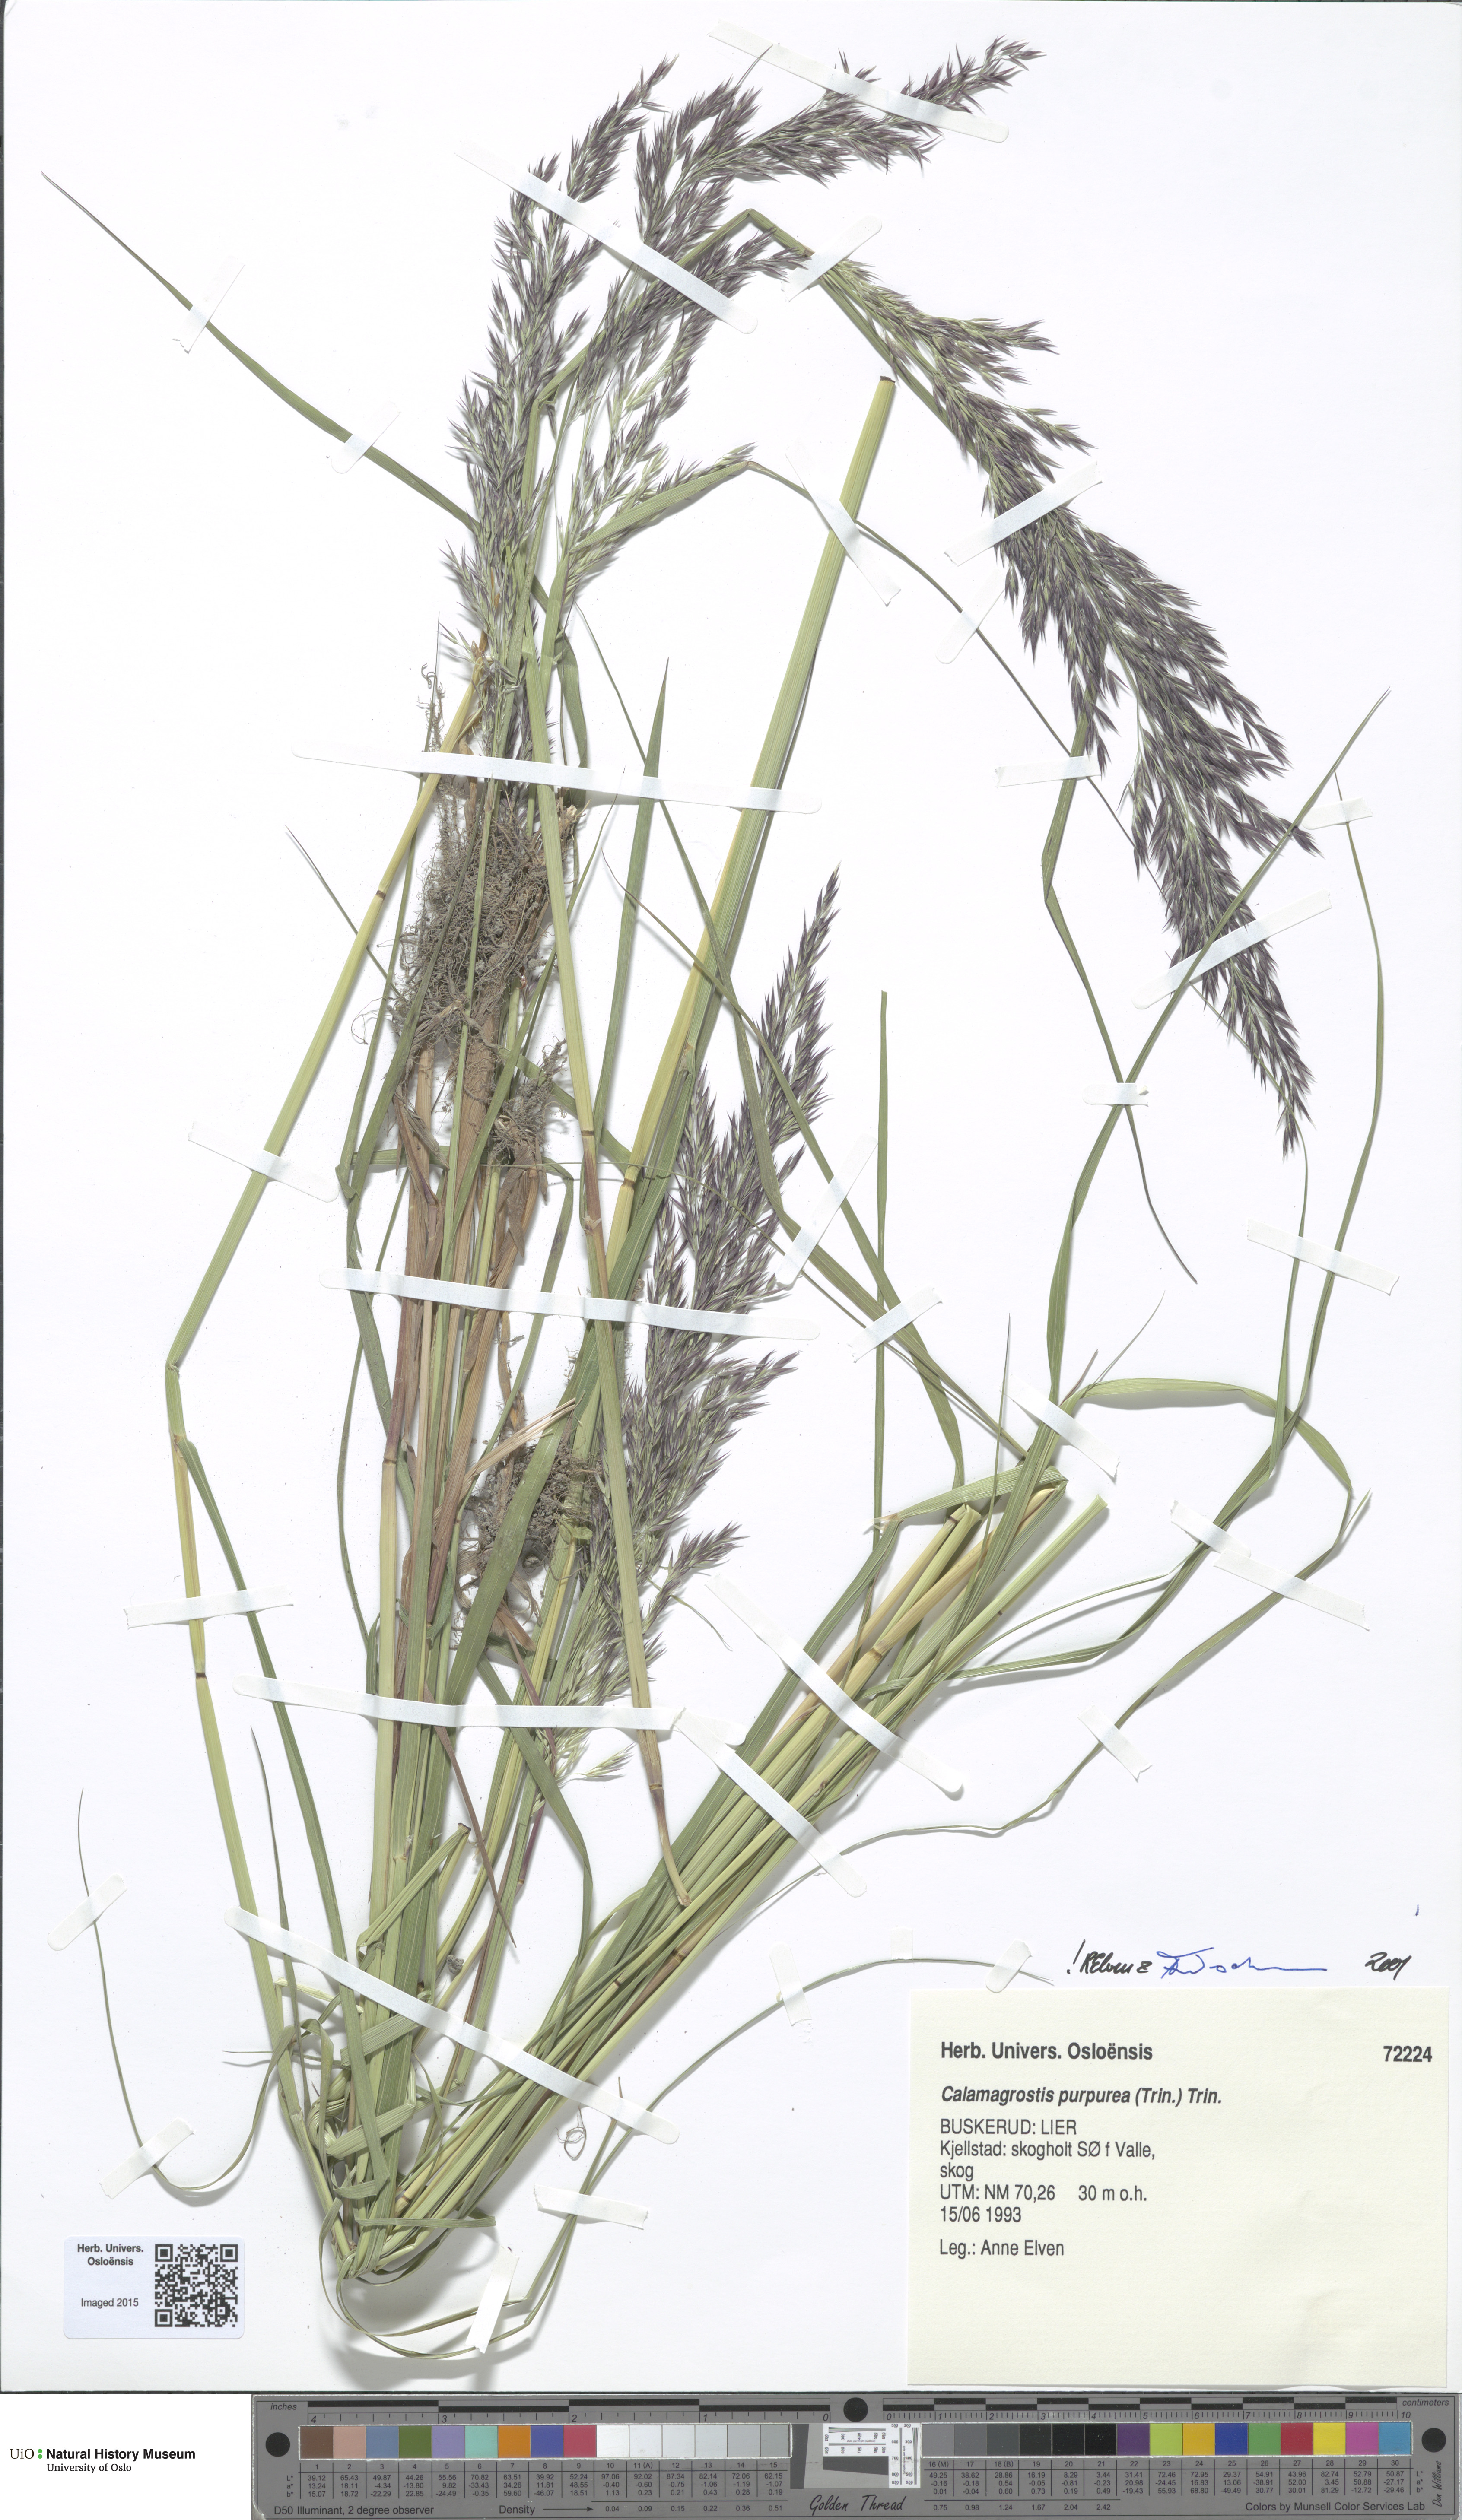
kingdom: Plantae
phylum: Tracheophyta
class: Liliopsida
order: Poales
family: Poaceae
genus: Calamagrostis
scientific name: Calamagrostis purpurea
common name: Scandinavian small-reed
